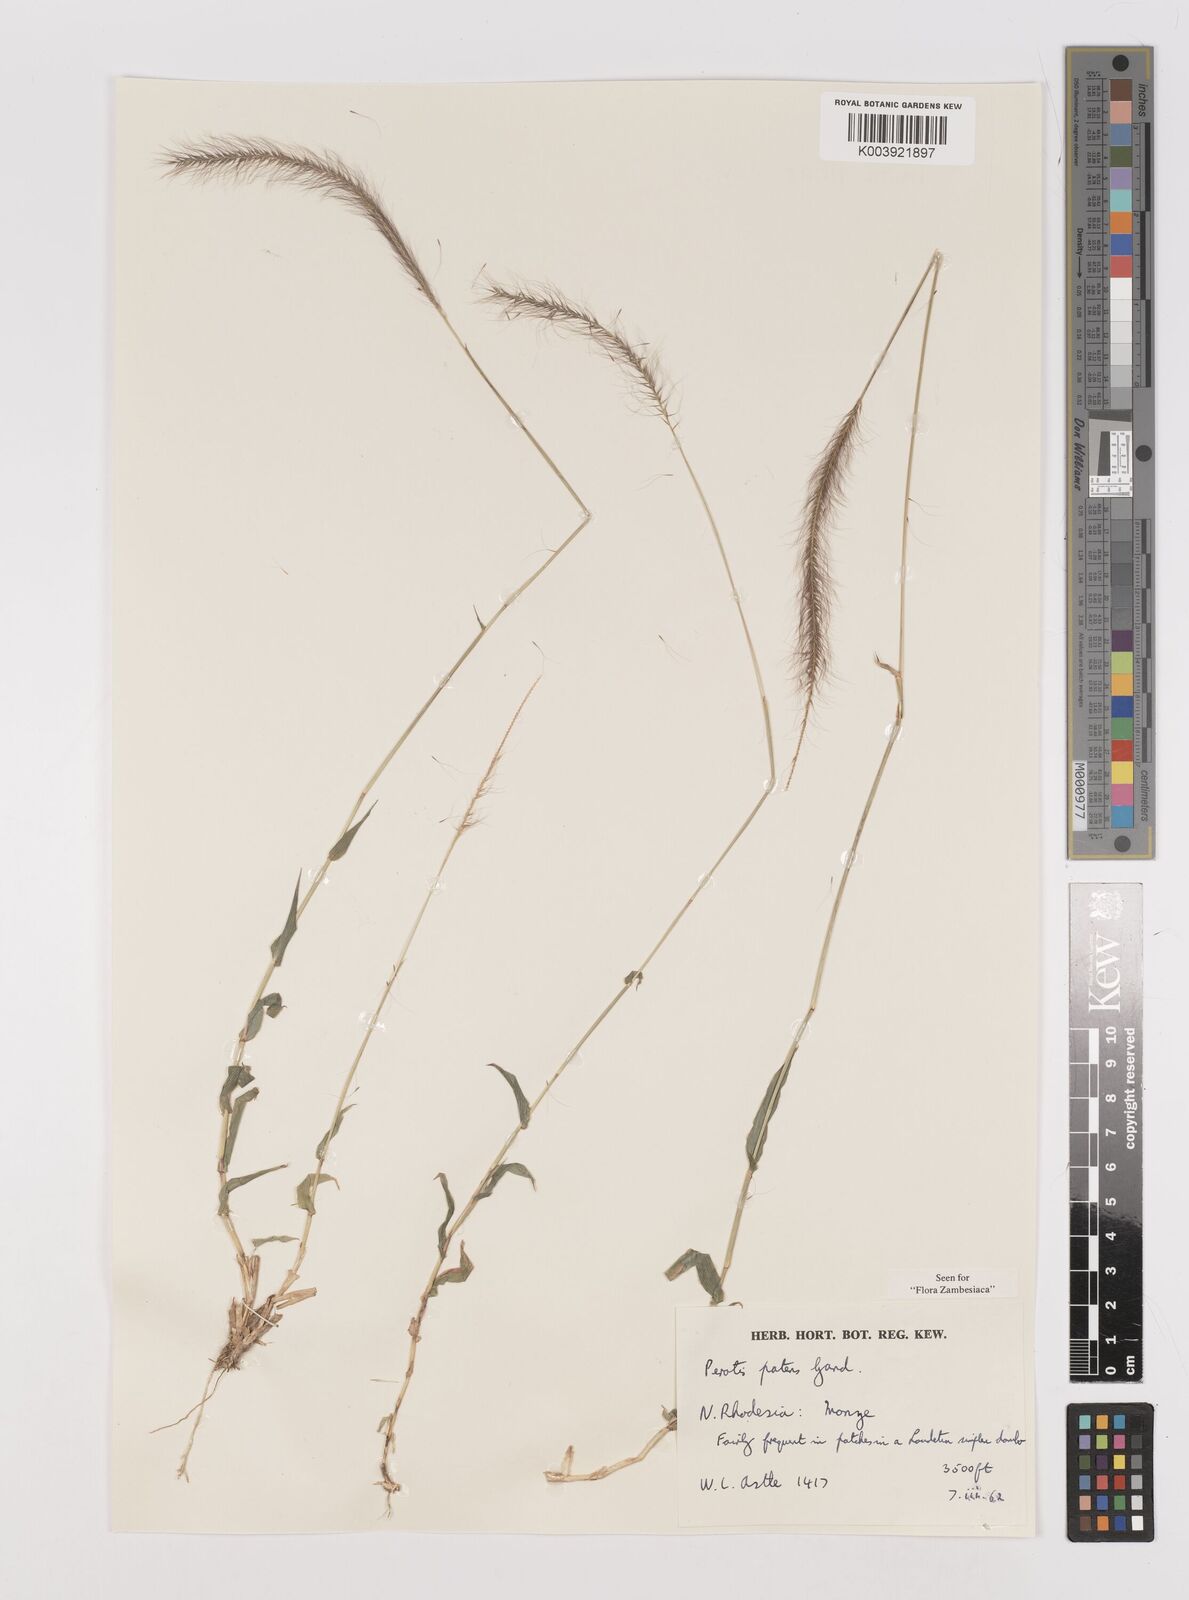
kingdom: Plantae
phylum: Tracheophyta
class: Liliopsida
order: Poales
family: Poaceae
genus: Perotis
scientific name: Perotis patens
